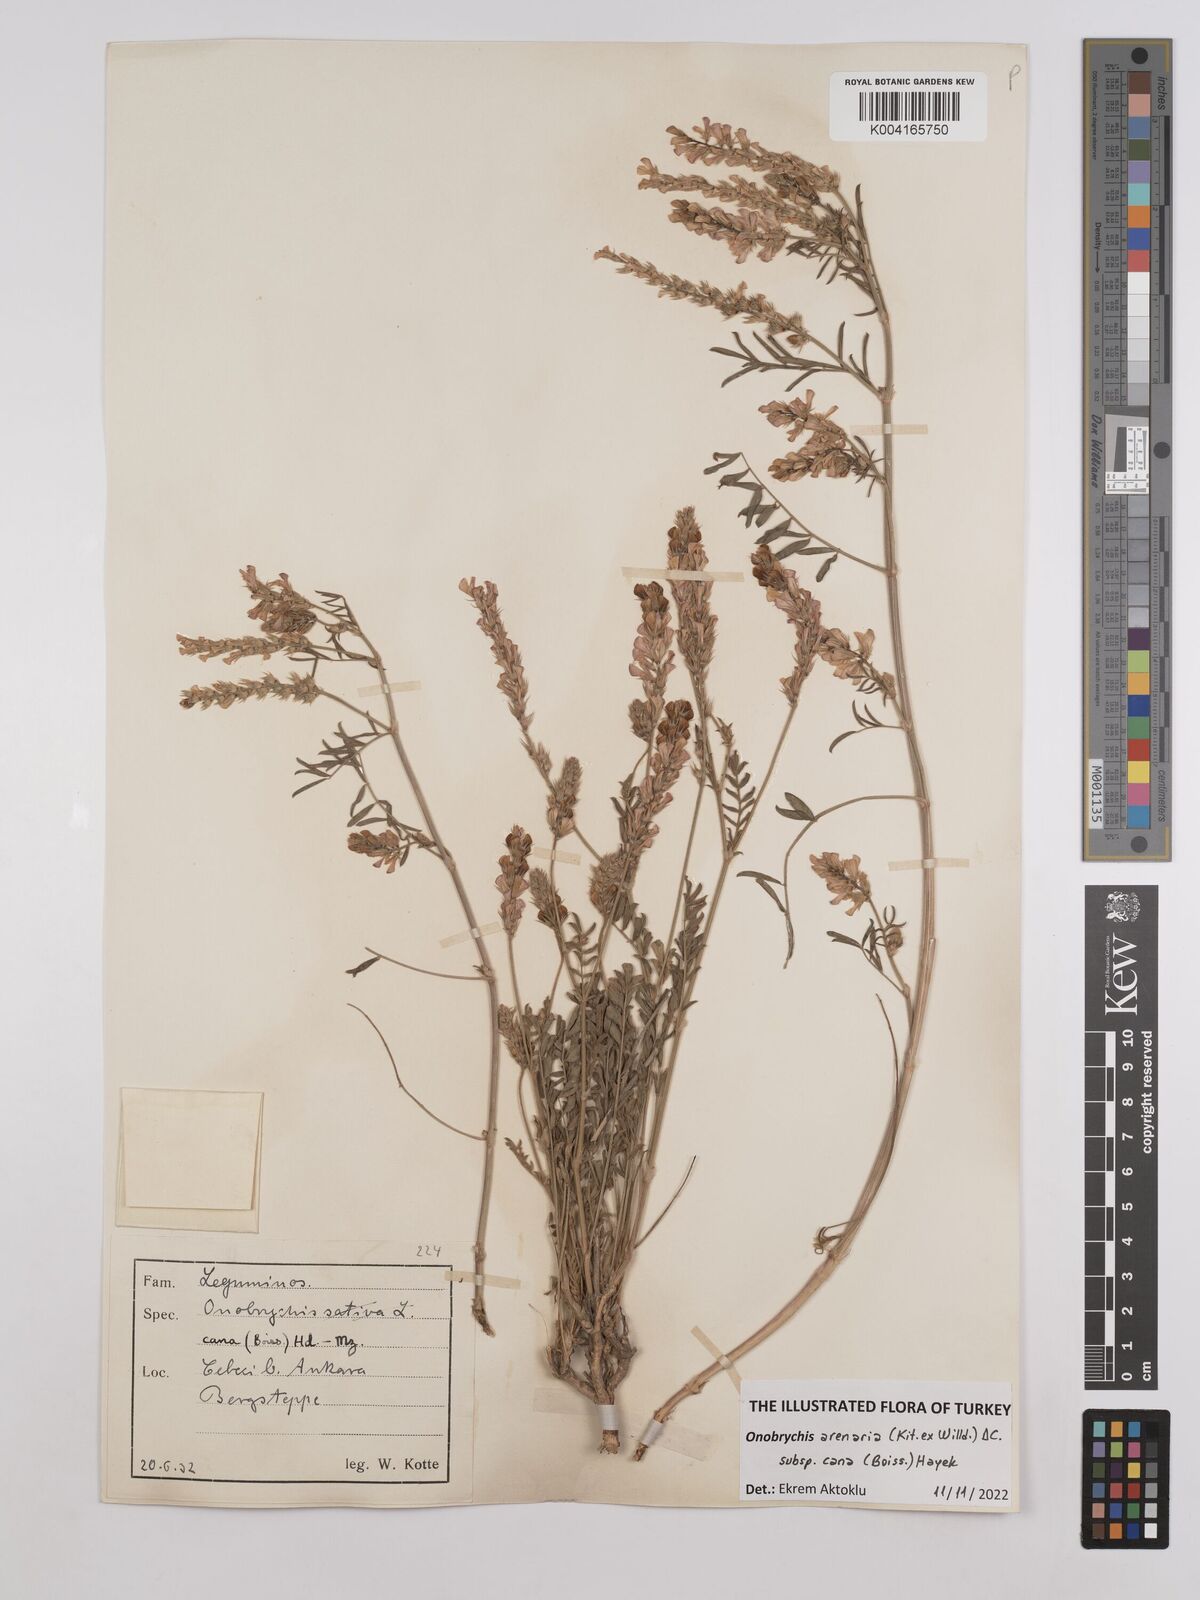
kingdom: Plantae
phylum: Tracheophyta
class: Magnoliopsida
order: Fabales
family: Fabaceae
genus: Onobrychis
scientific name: Onobrychis arenaria
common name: Sand esparcet
